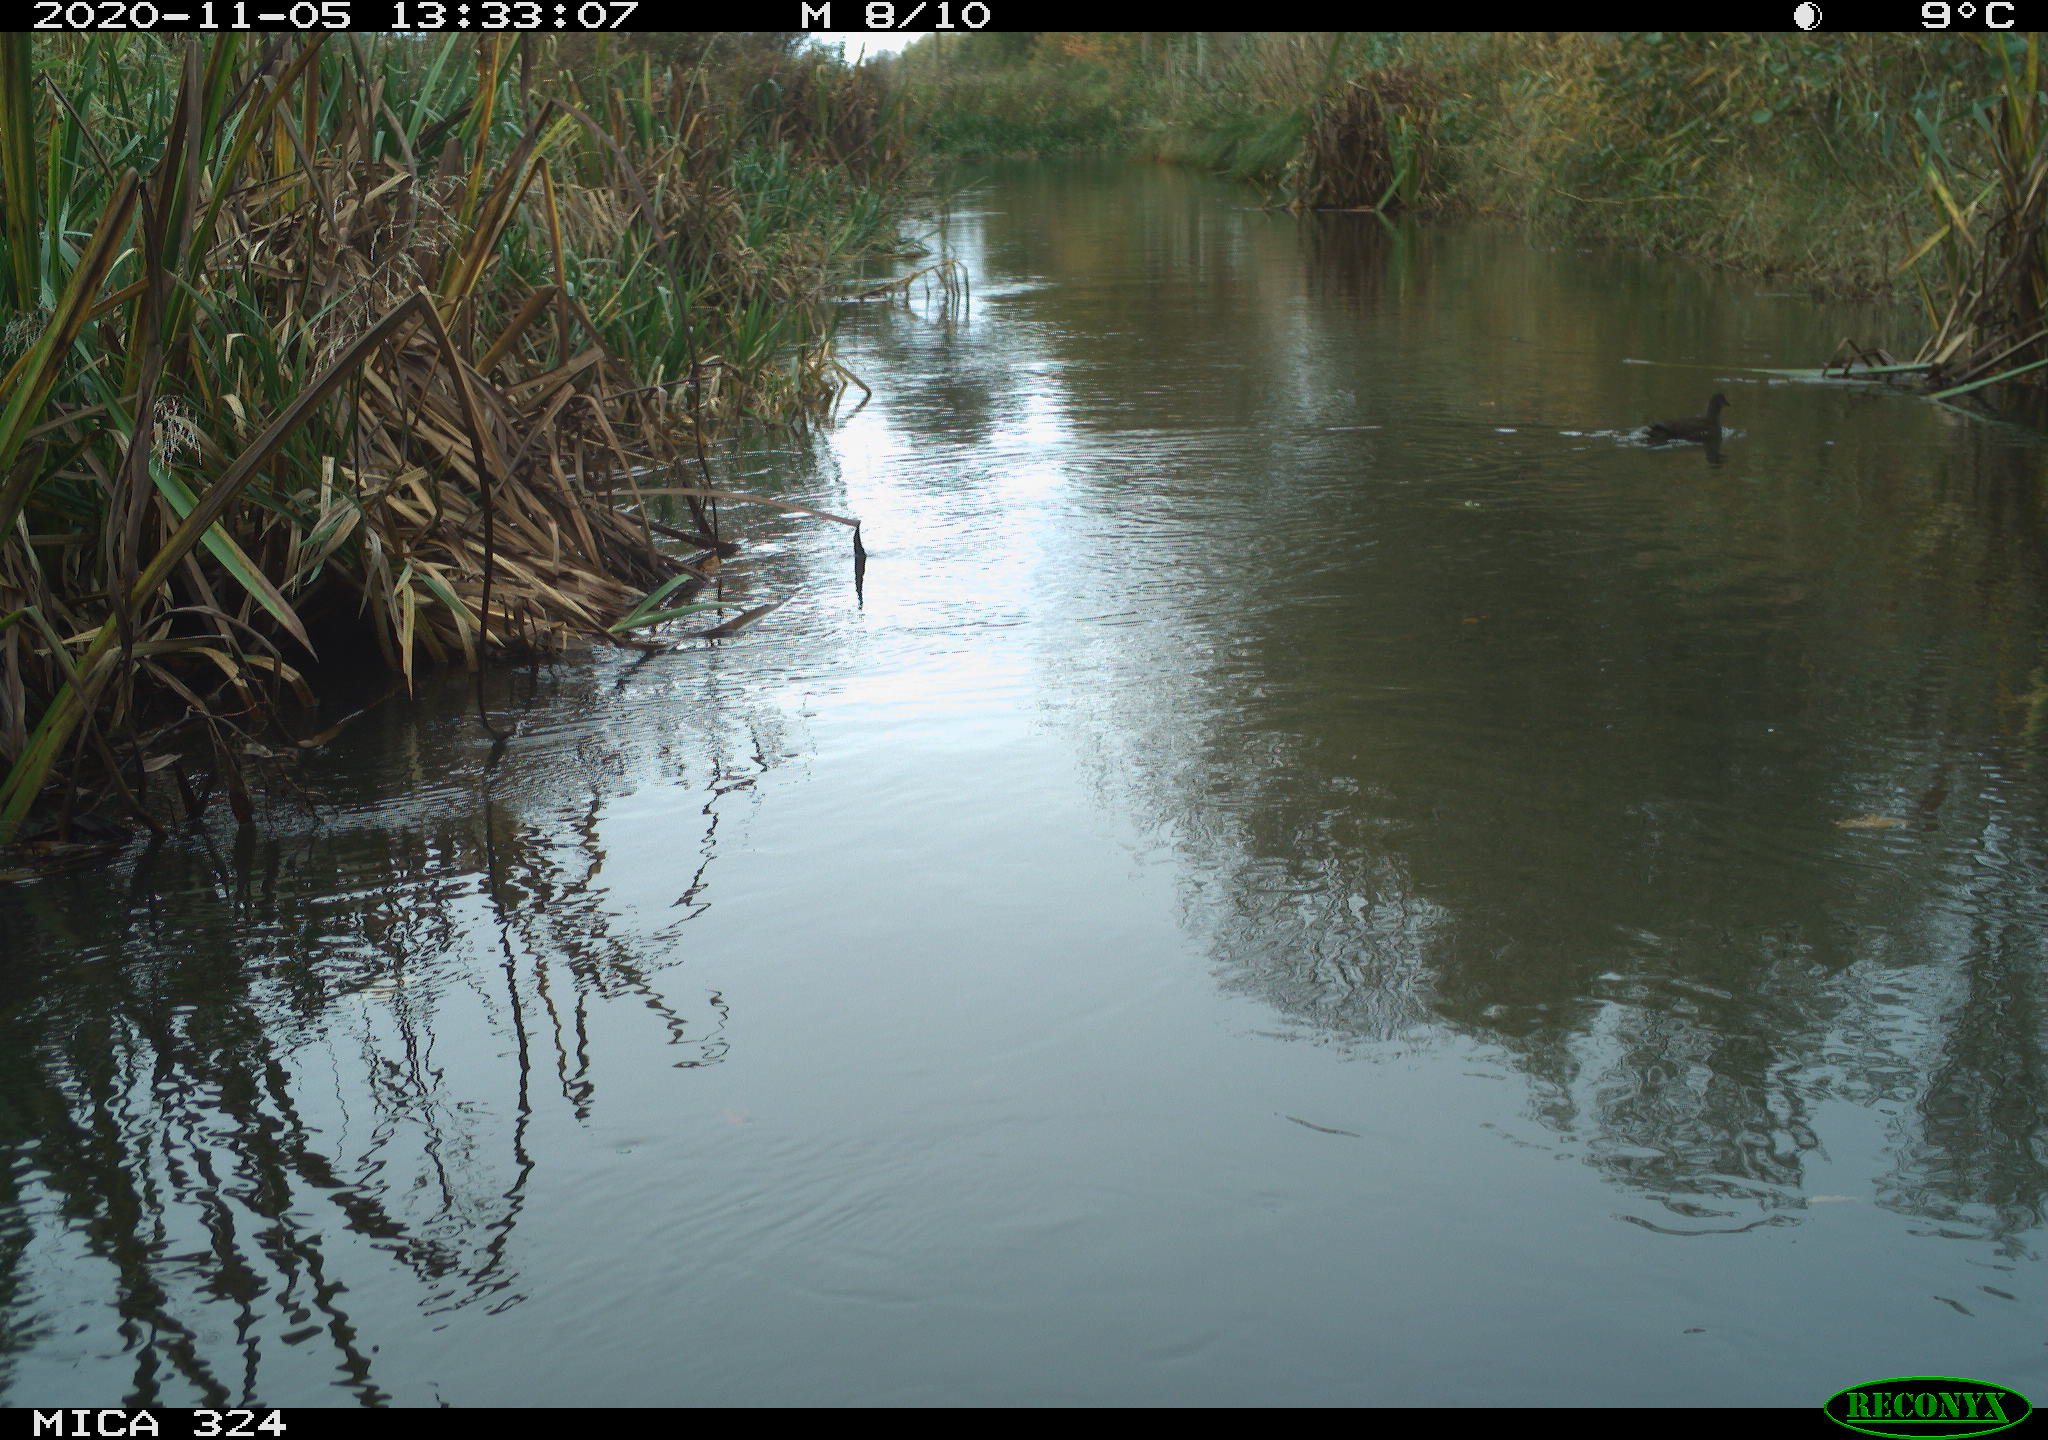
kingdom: Animalia
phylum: Chordata
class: Aves
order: Gruiformes
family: Rallidae
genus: Gallinula
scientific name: Gallinula chloropus
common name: Common moorhen
